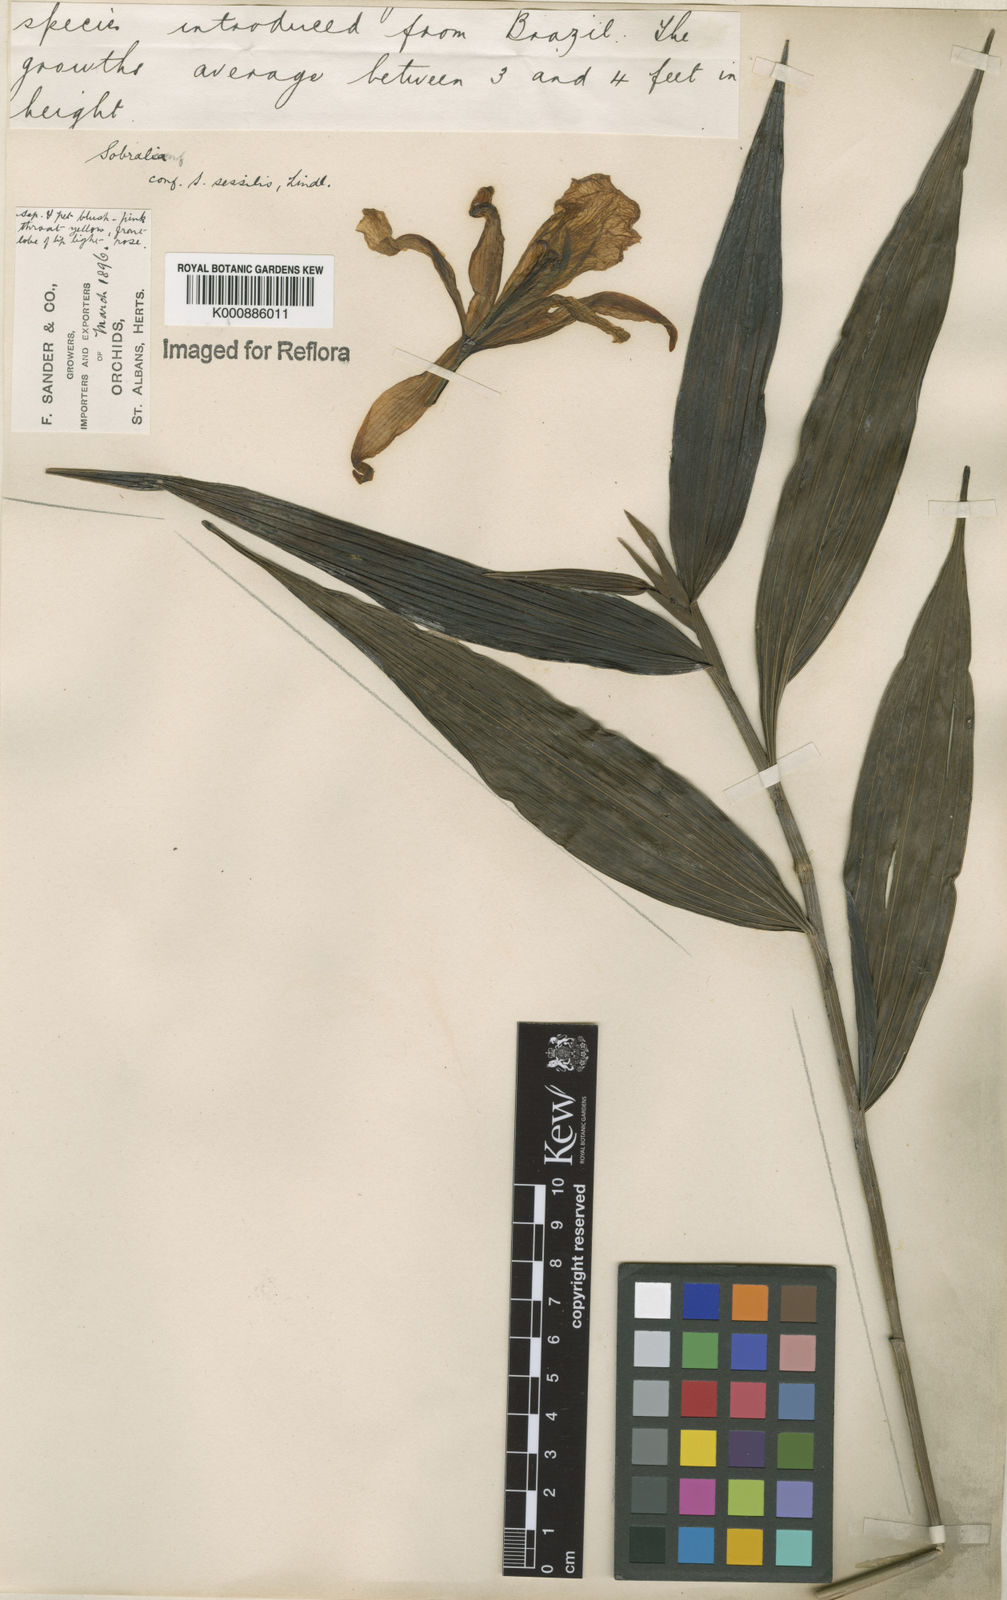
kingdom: Plantae
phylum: Tracheophyta
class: Liliopsida
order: Asparagales
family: Orchidaceae
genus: Sobralia
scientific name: Sobralia sessilis
